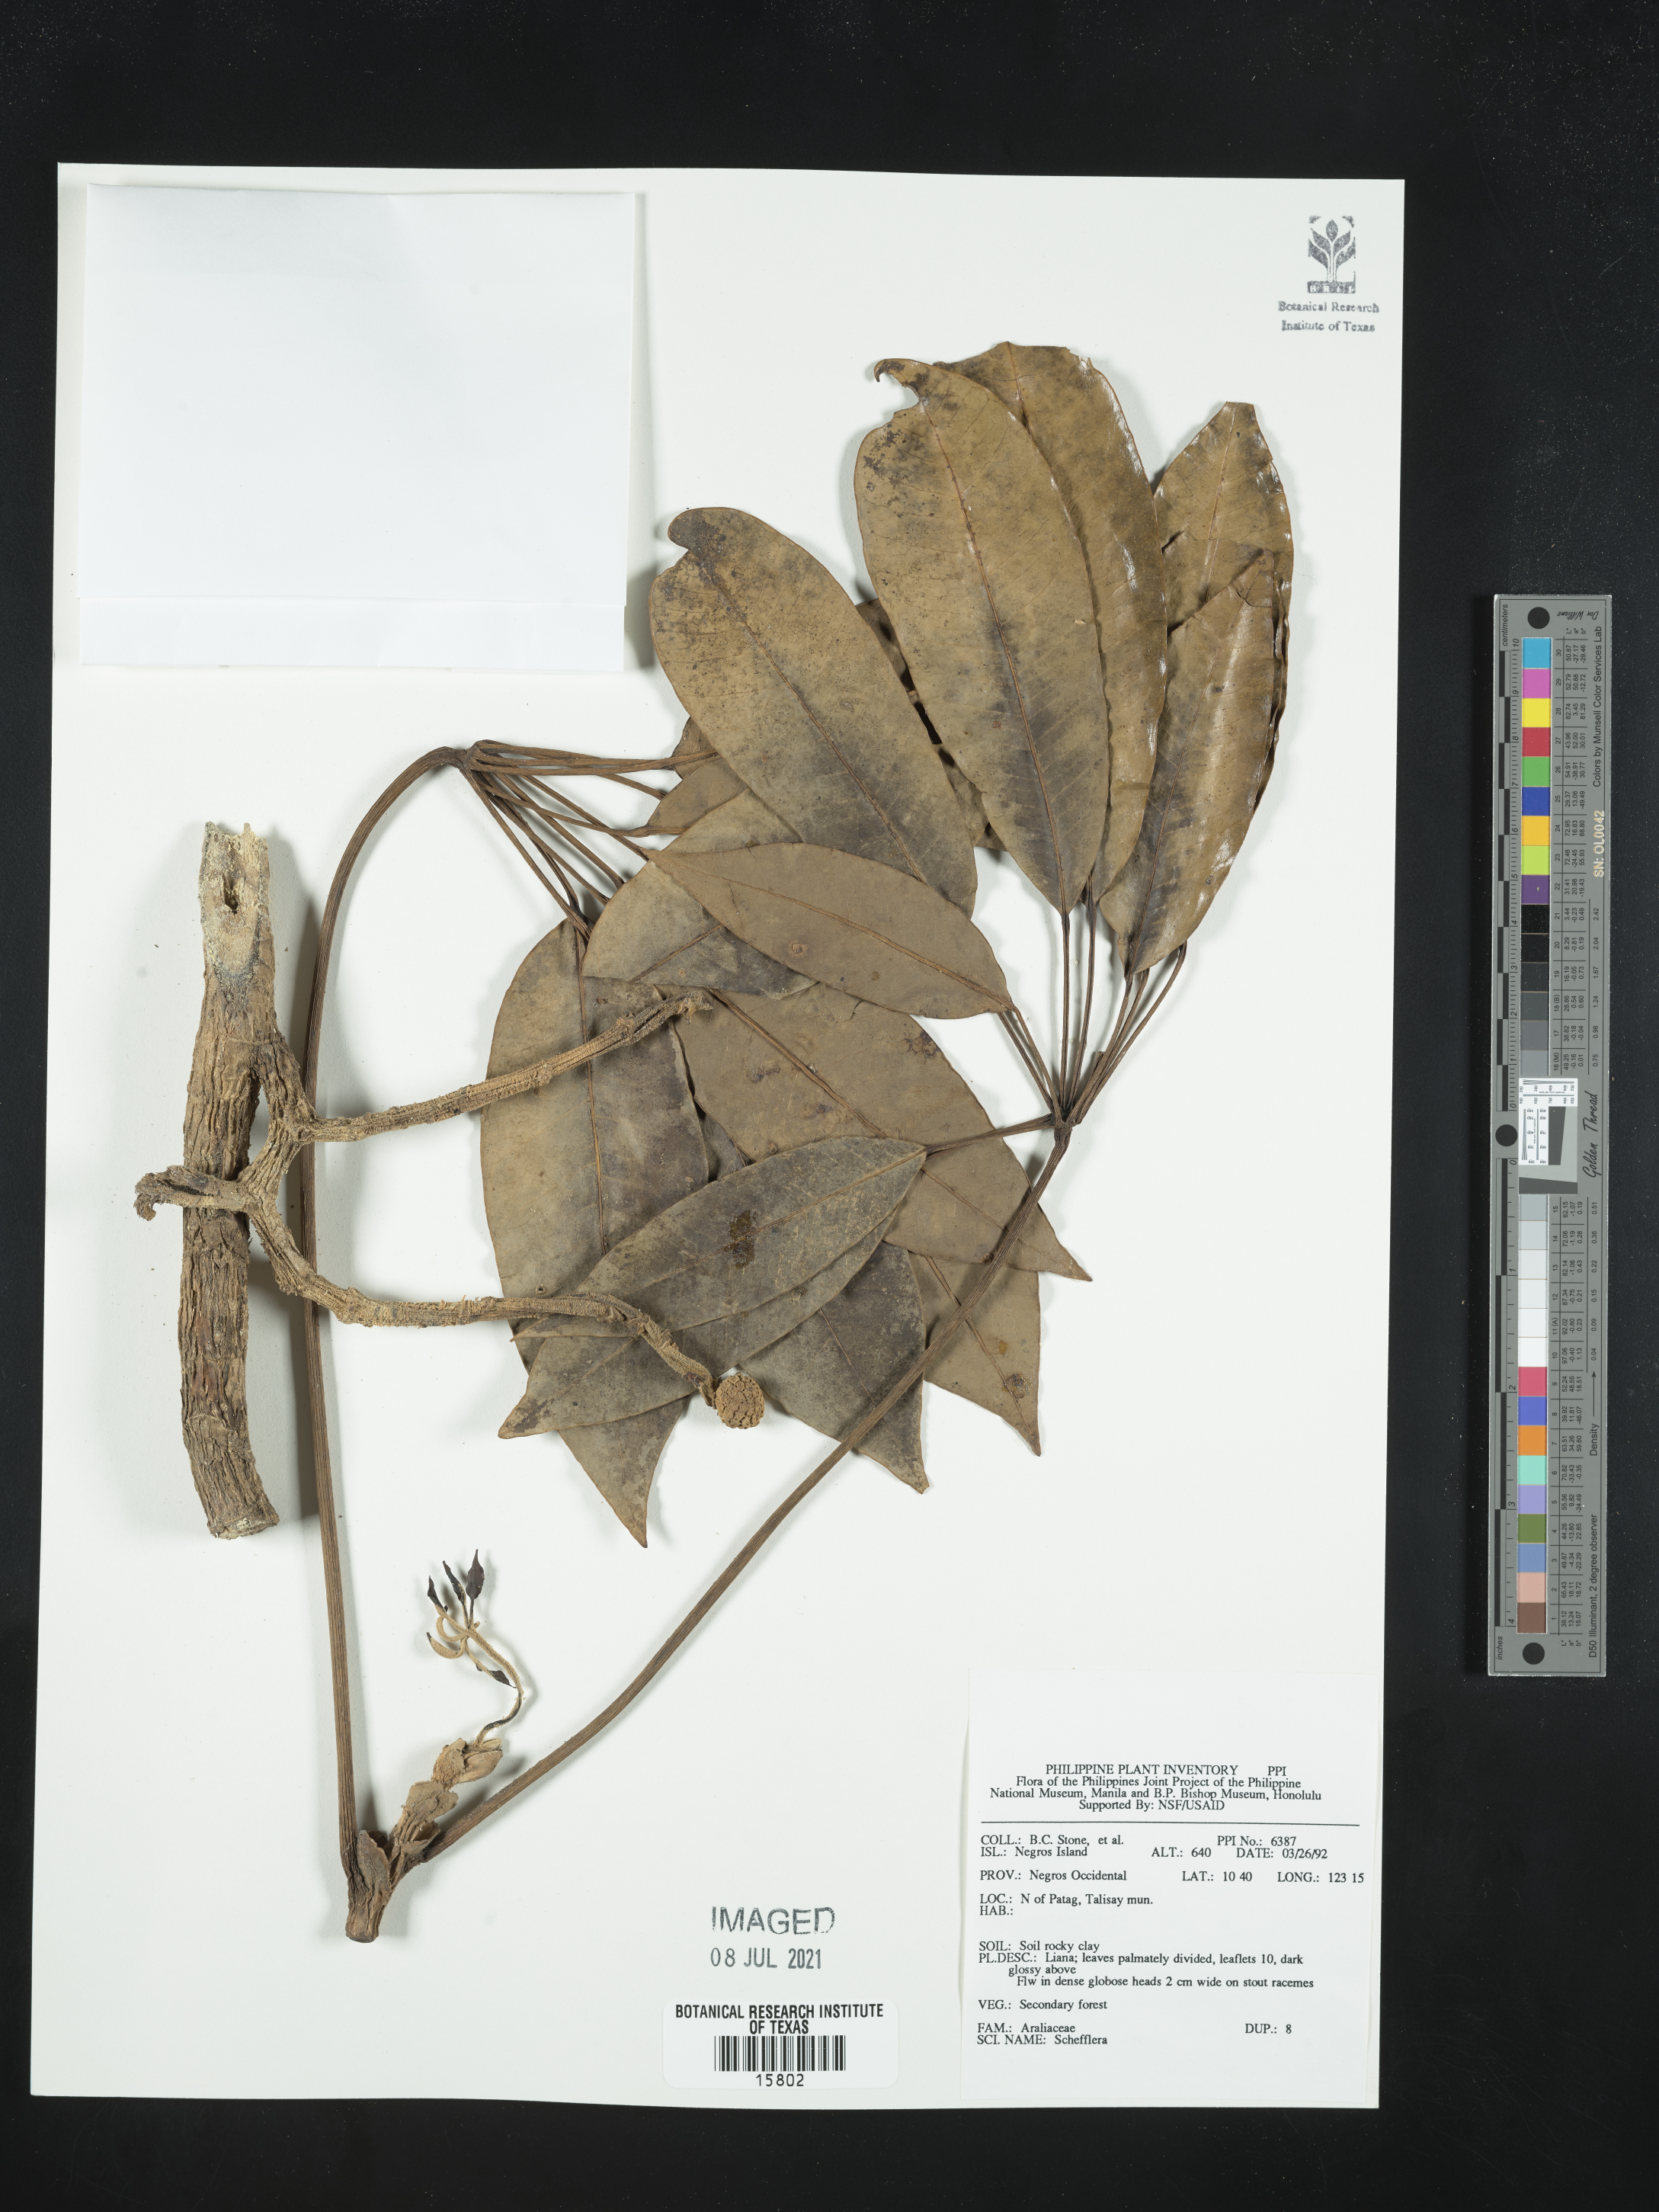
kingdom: Plantae
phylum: Tracheophyta
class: Magnoliopsida
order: Apiales
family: Araliaceae
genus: Schefflera
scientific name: Schefflera
